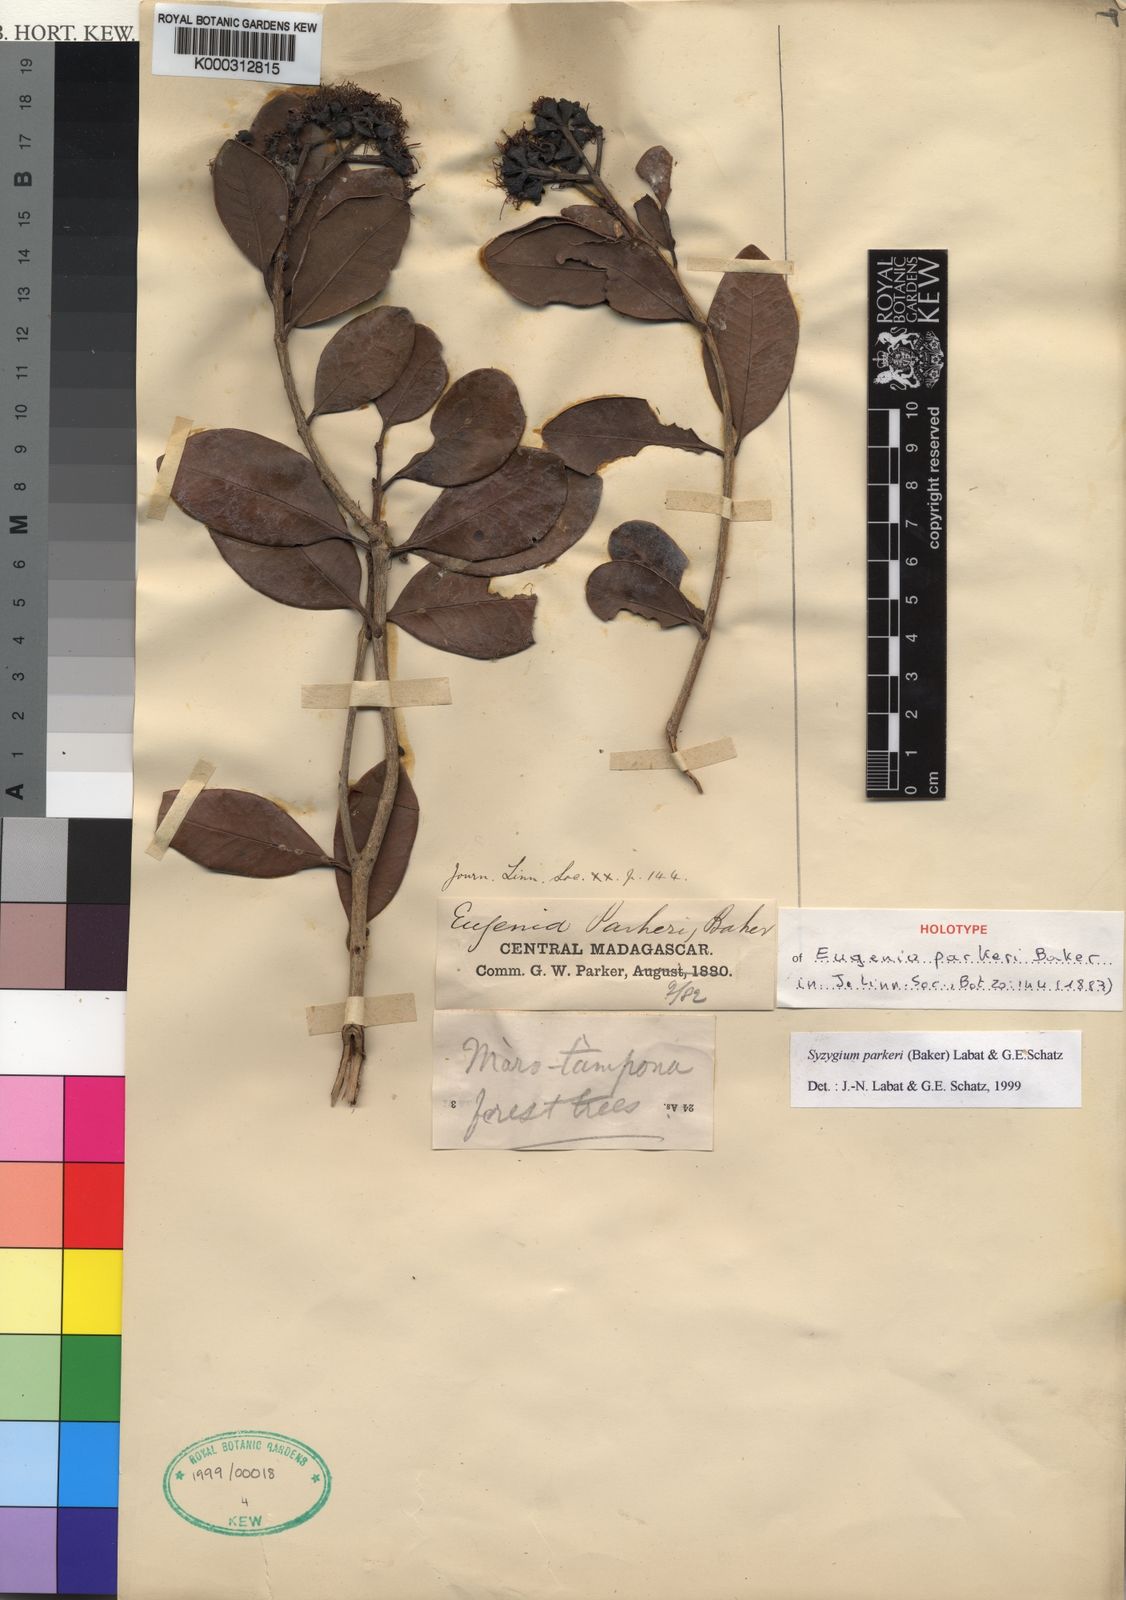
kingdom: Plantae
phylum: Tracheophyta
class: Magnoliopsida
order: Myrtales
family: Myrtaceae
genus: Syzygium
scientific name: Syzygium parkeri
